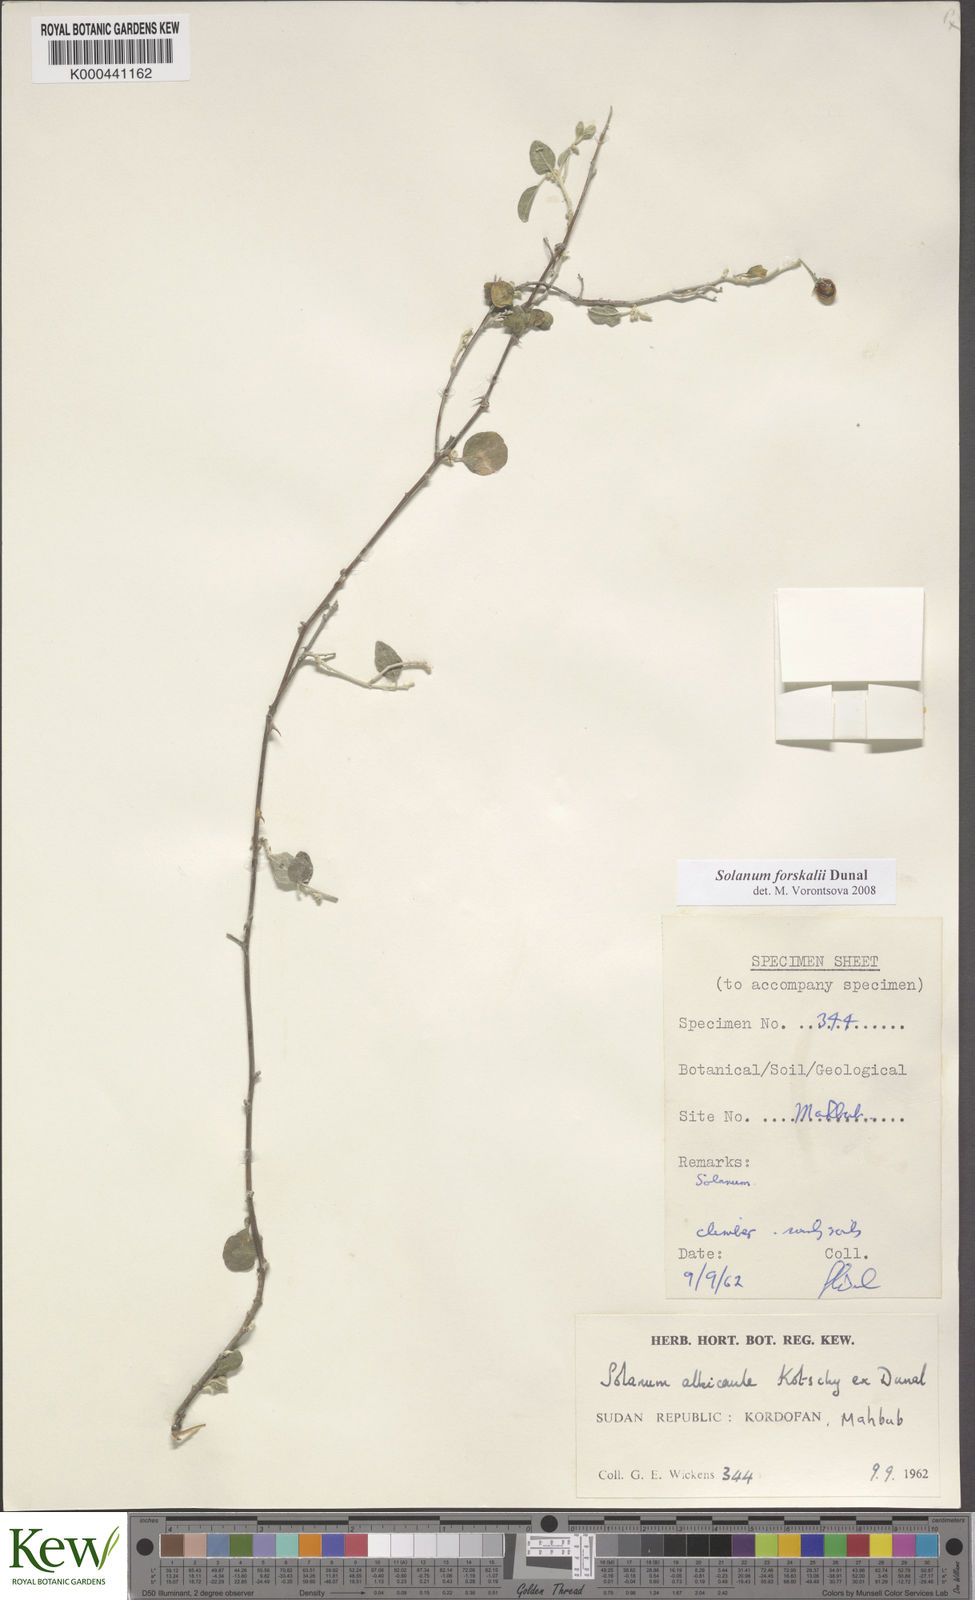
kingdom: Plantae
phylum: Tracheophyta
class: Magnoliopsida
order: Solanales
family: Solanaceae
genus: Solanum
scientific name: Solanum
